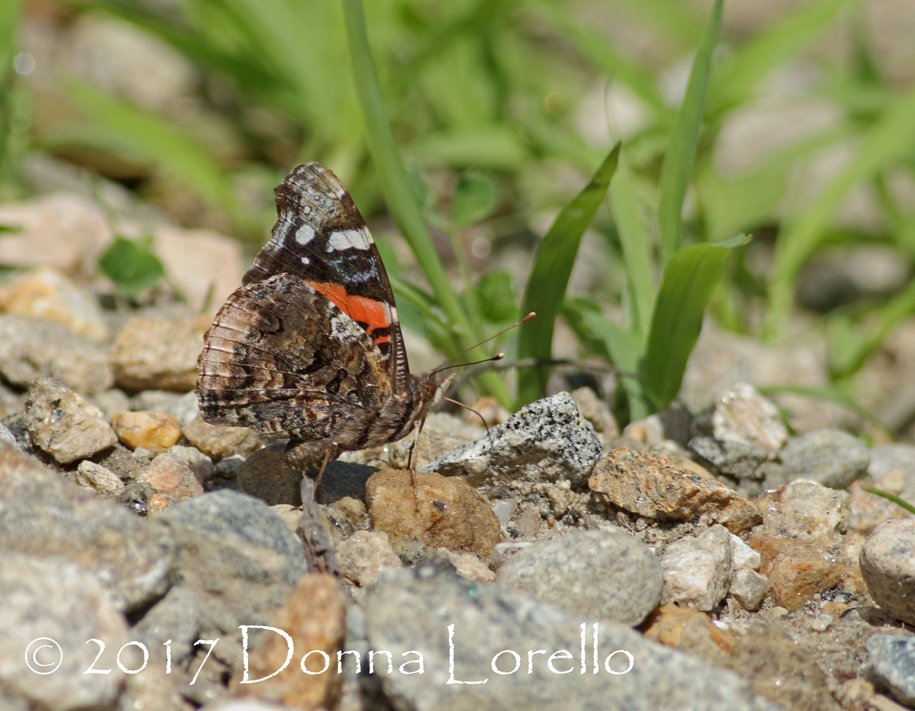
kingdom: Animalia
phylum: Arthropoda
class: Insecta
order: Lepidoptera
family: Nymphalidae
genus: Vanessa
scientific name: Vanessa atalanta
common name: Red Admiral
